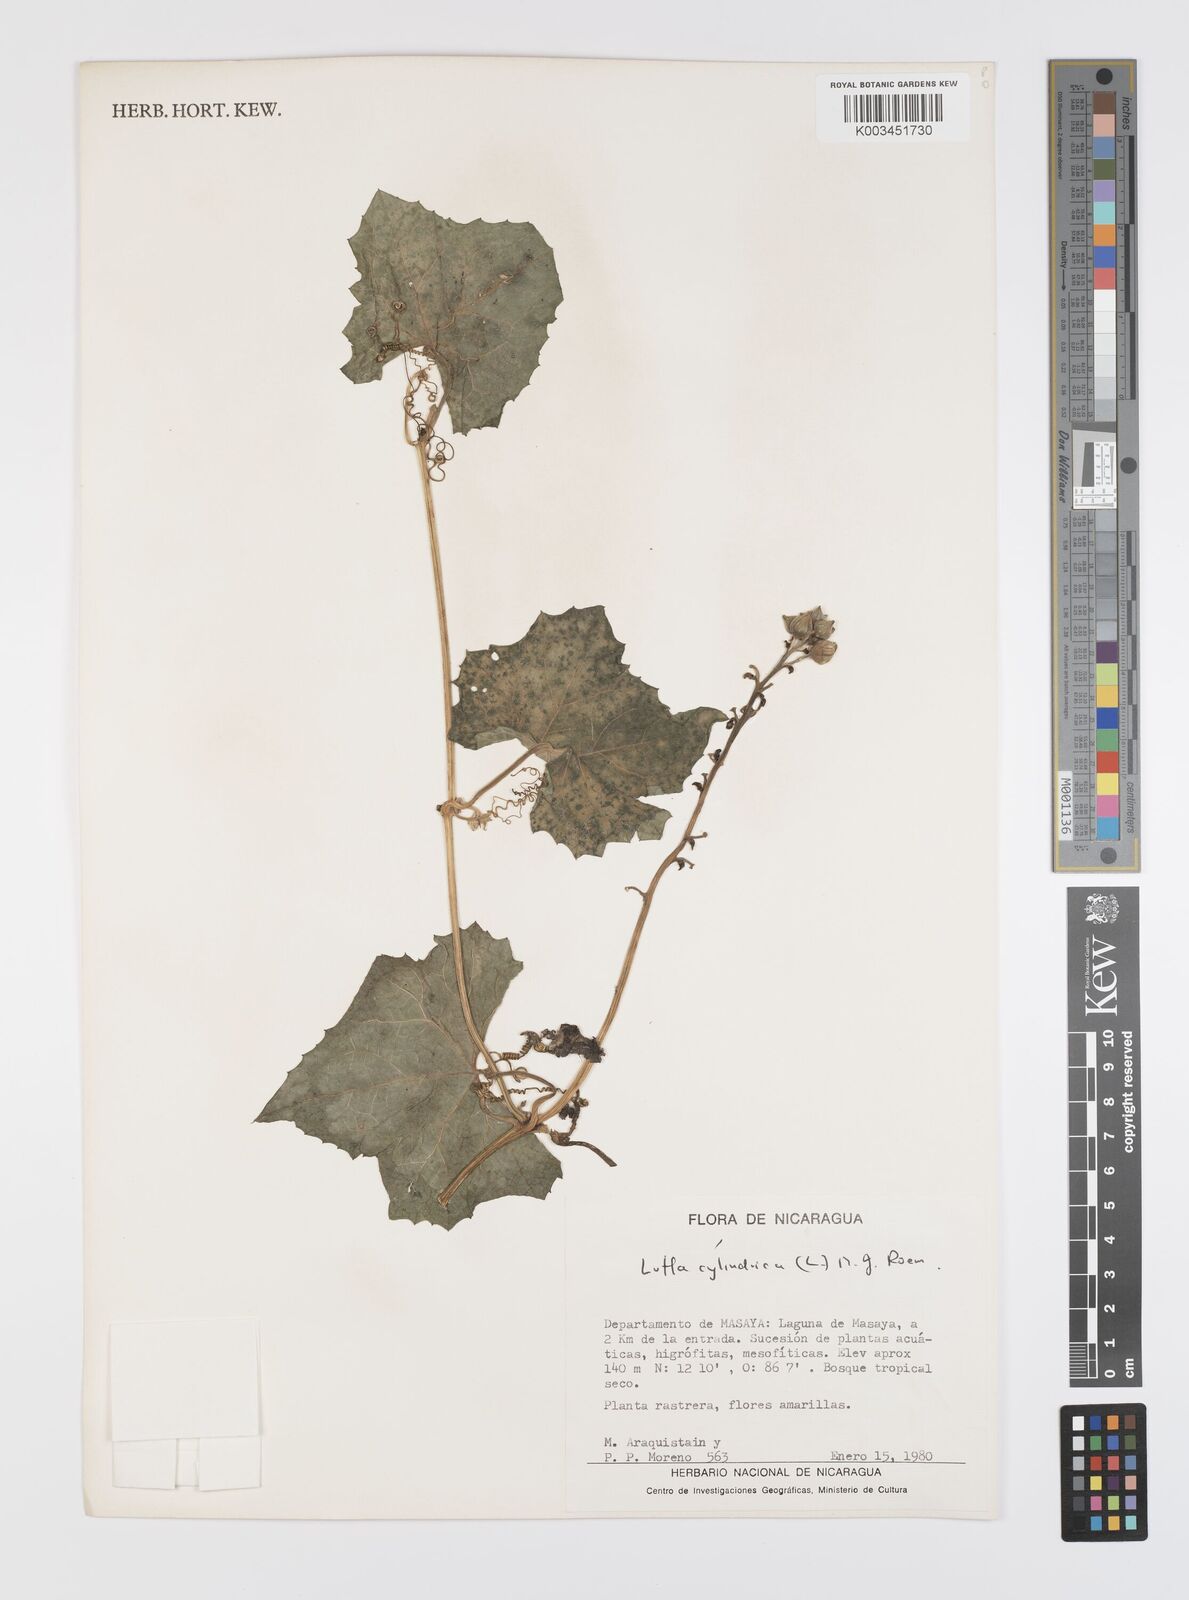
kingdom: Plantae
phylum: Tracheophyta
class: Magnoliopsida
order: Cucurbitales
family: Cucurbitaceae
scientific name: Cucurbitaceae
